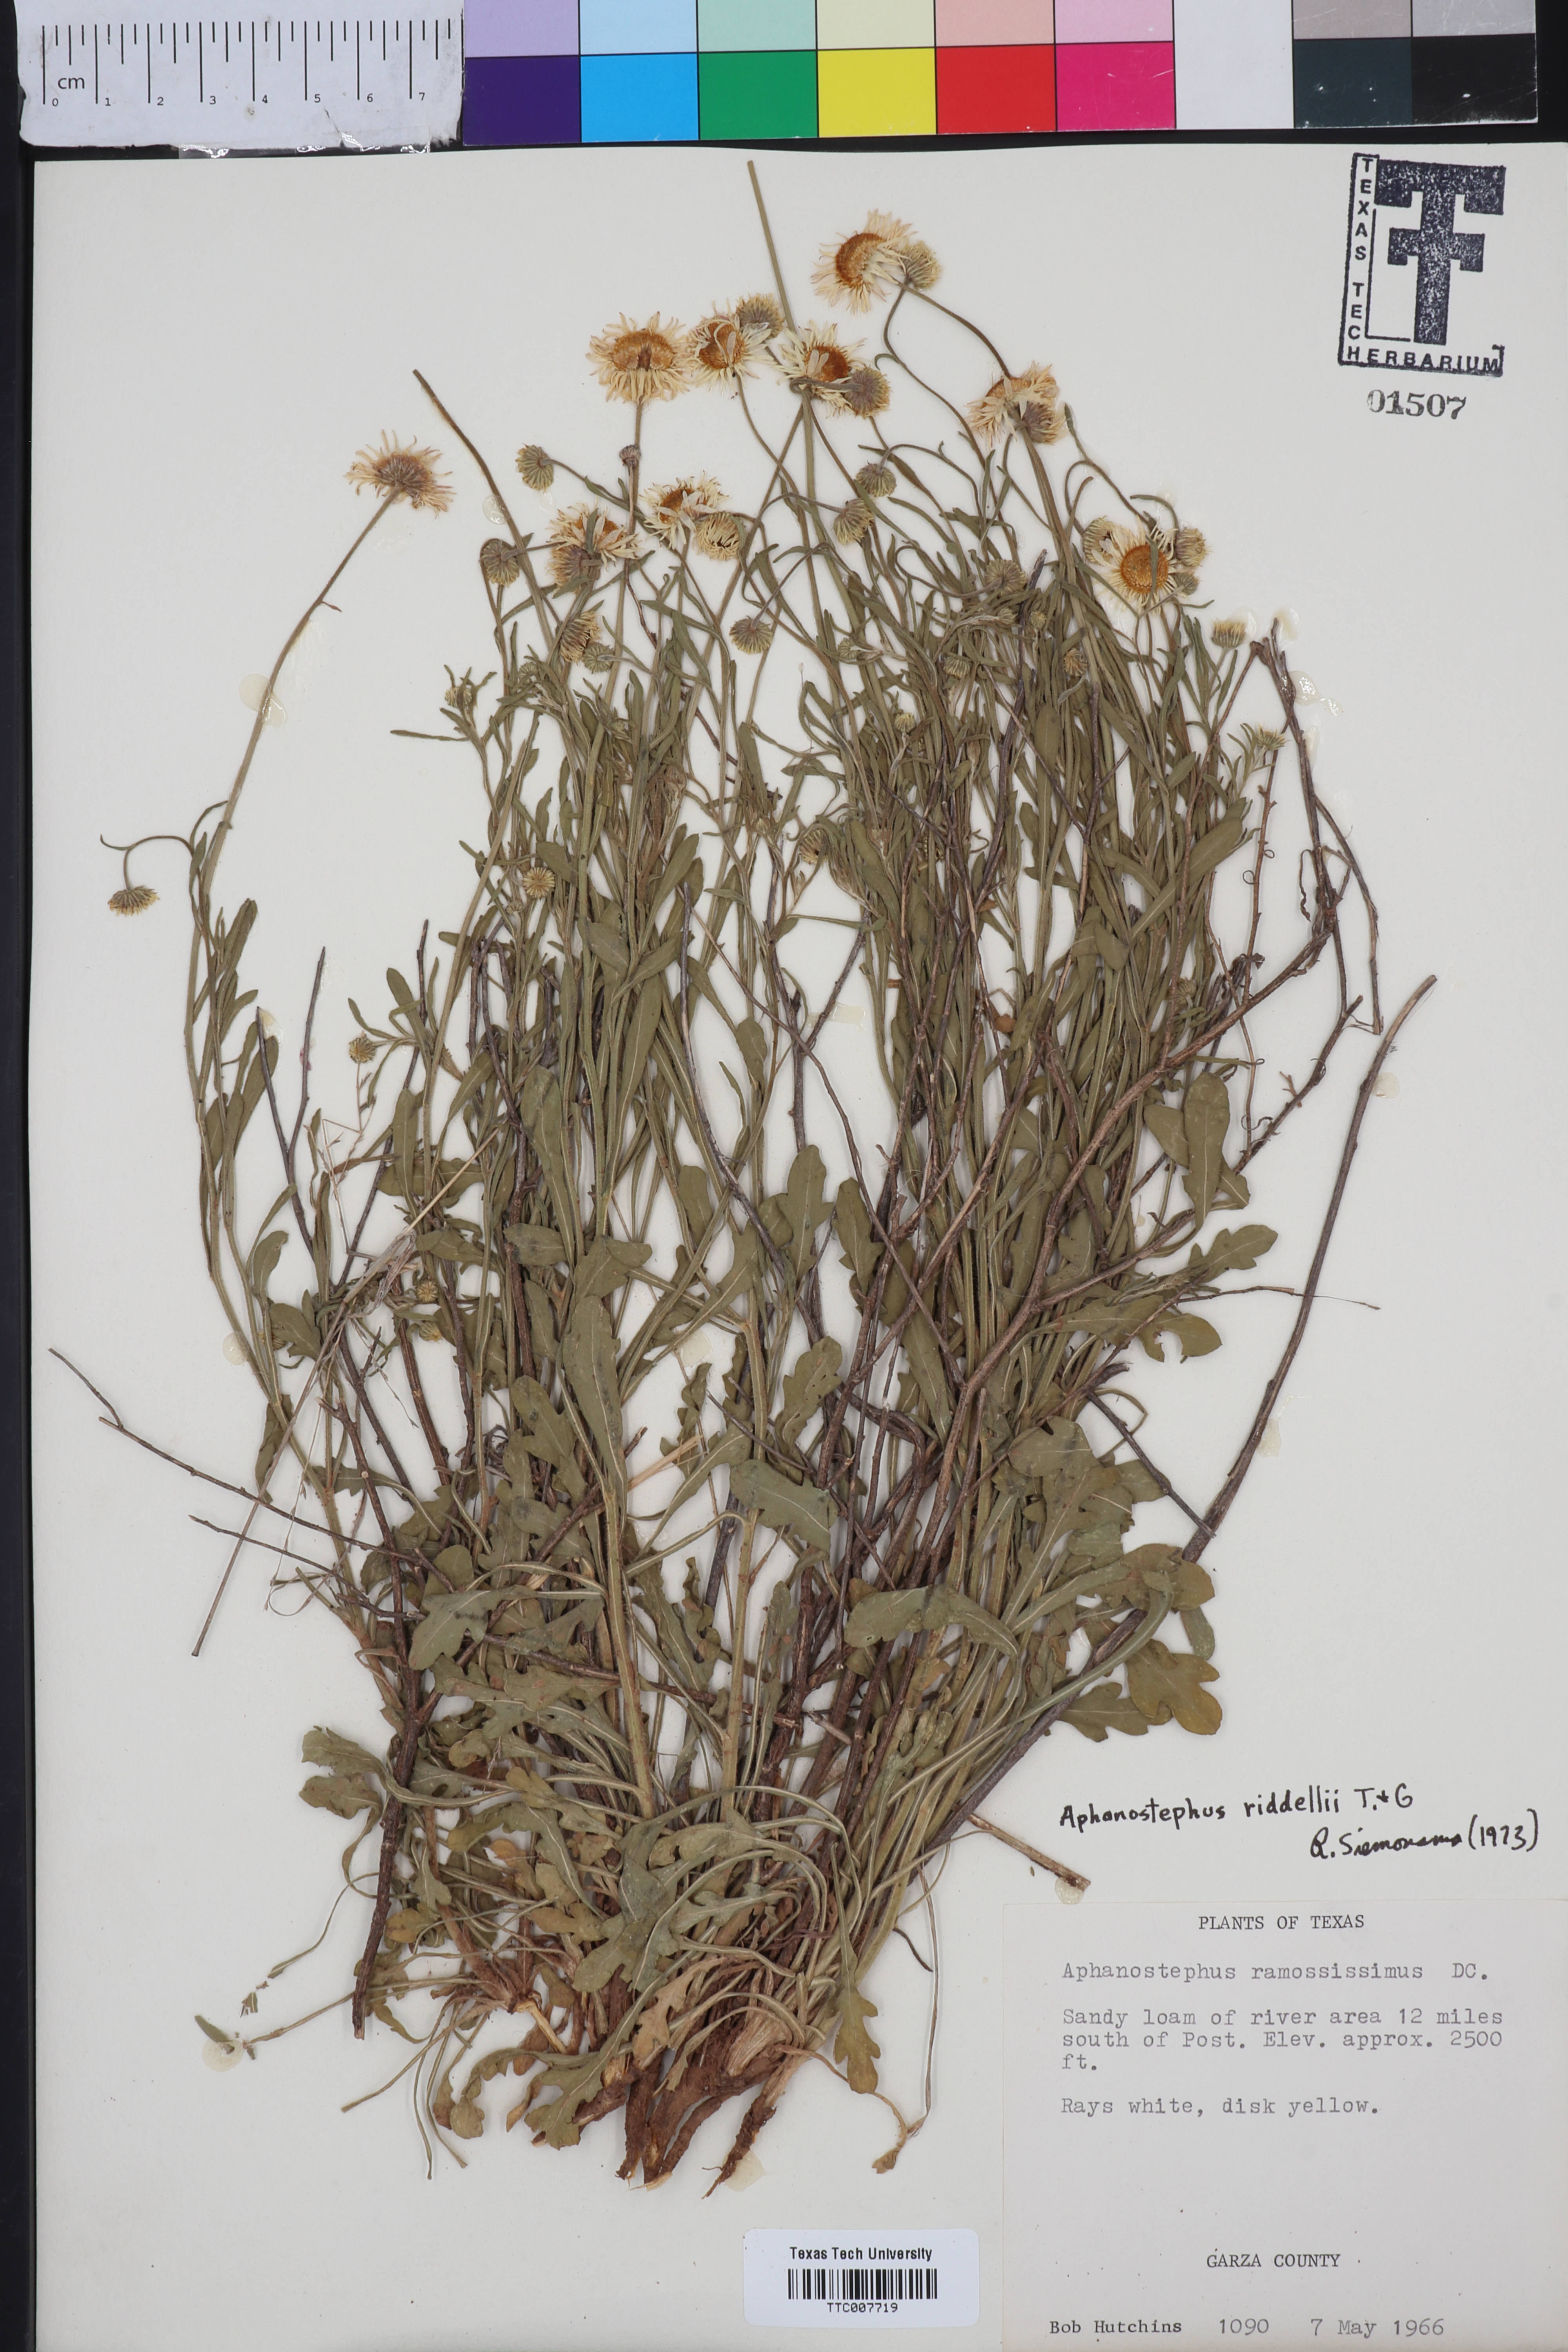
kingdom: Plantae
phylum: Tracheophyta
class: Magnoliopsida
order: Asterales
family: Asteraceae
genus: Aphanostephus
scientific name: Aphanostephus riddellii
